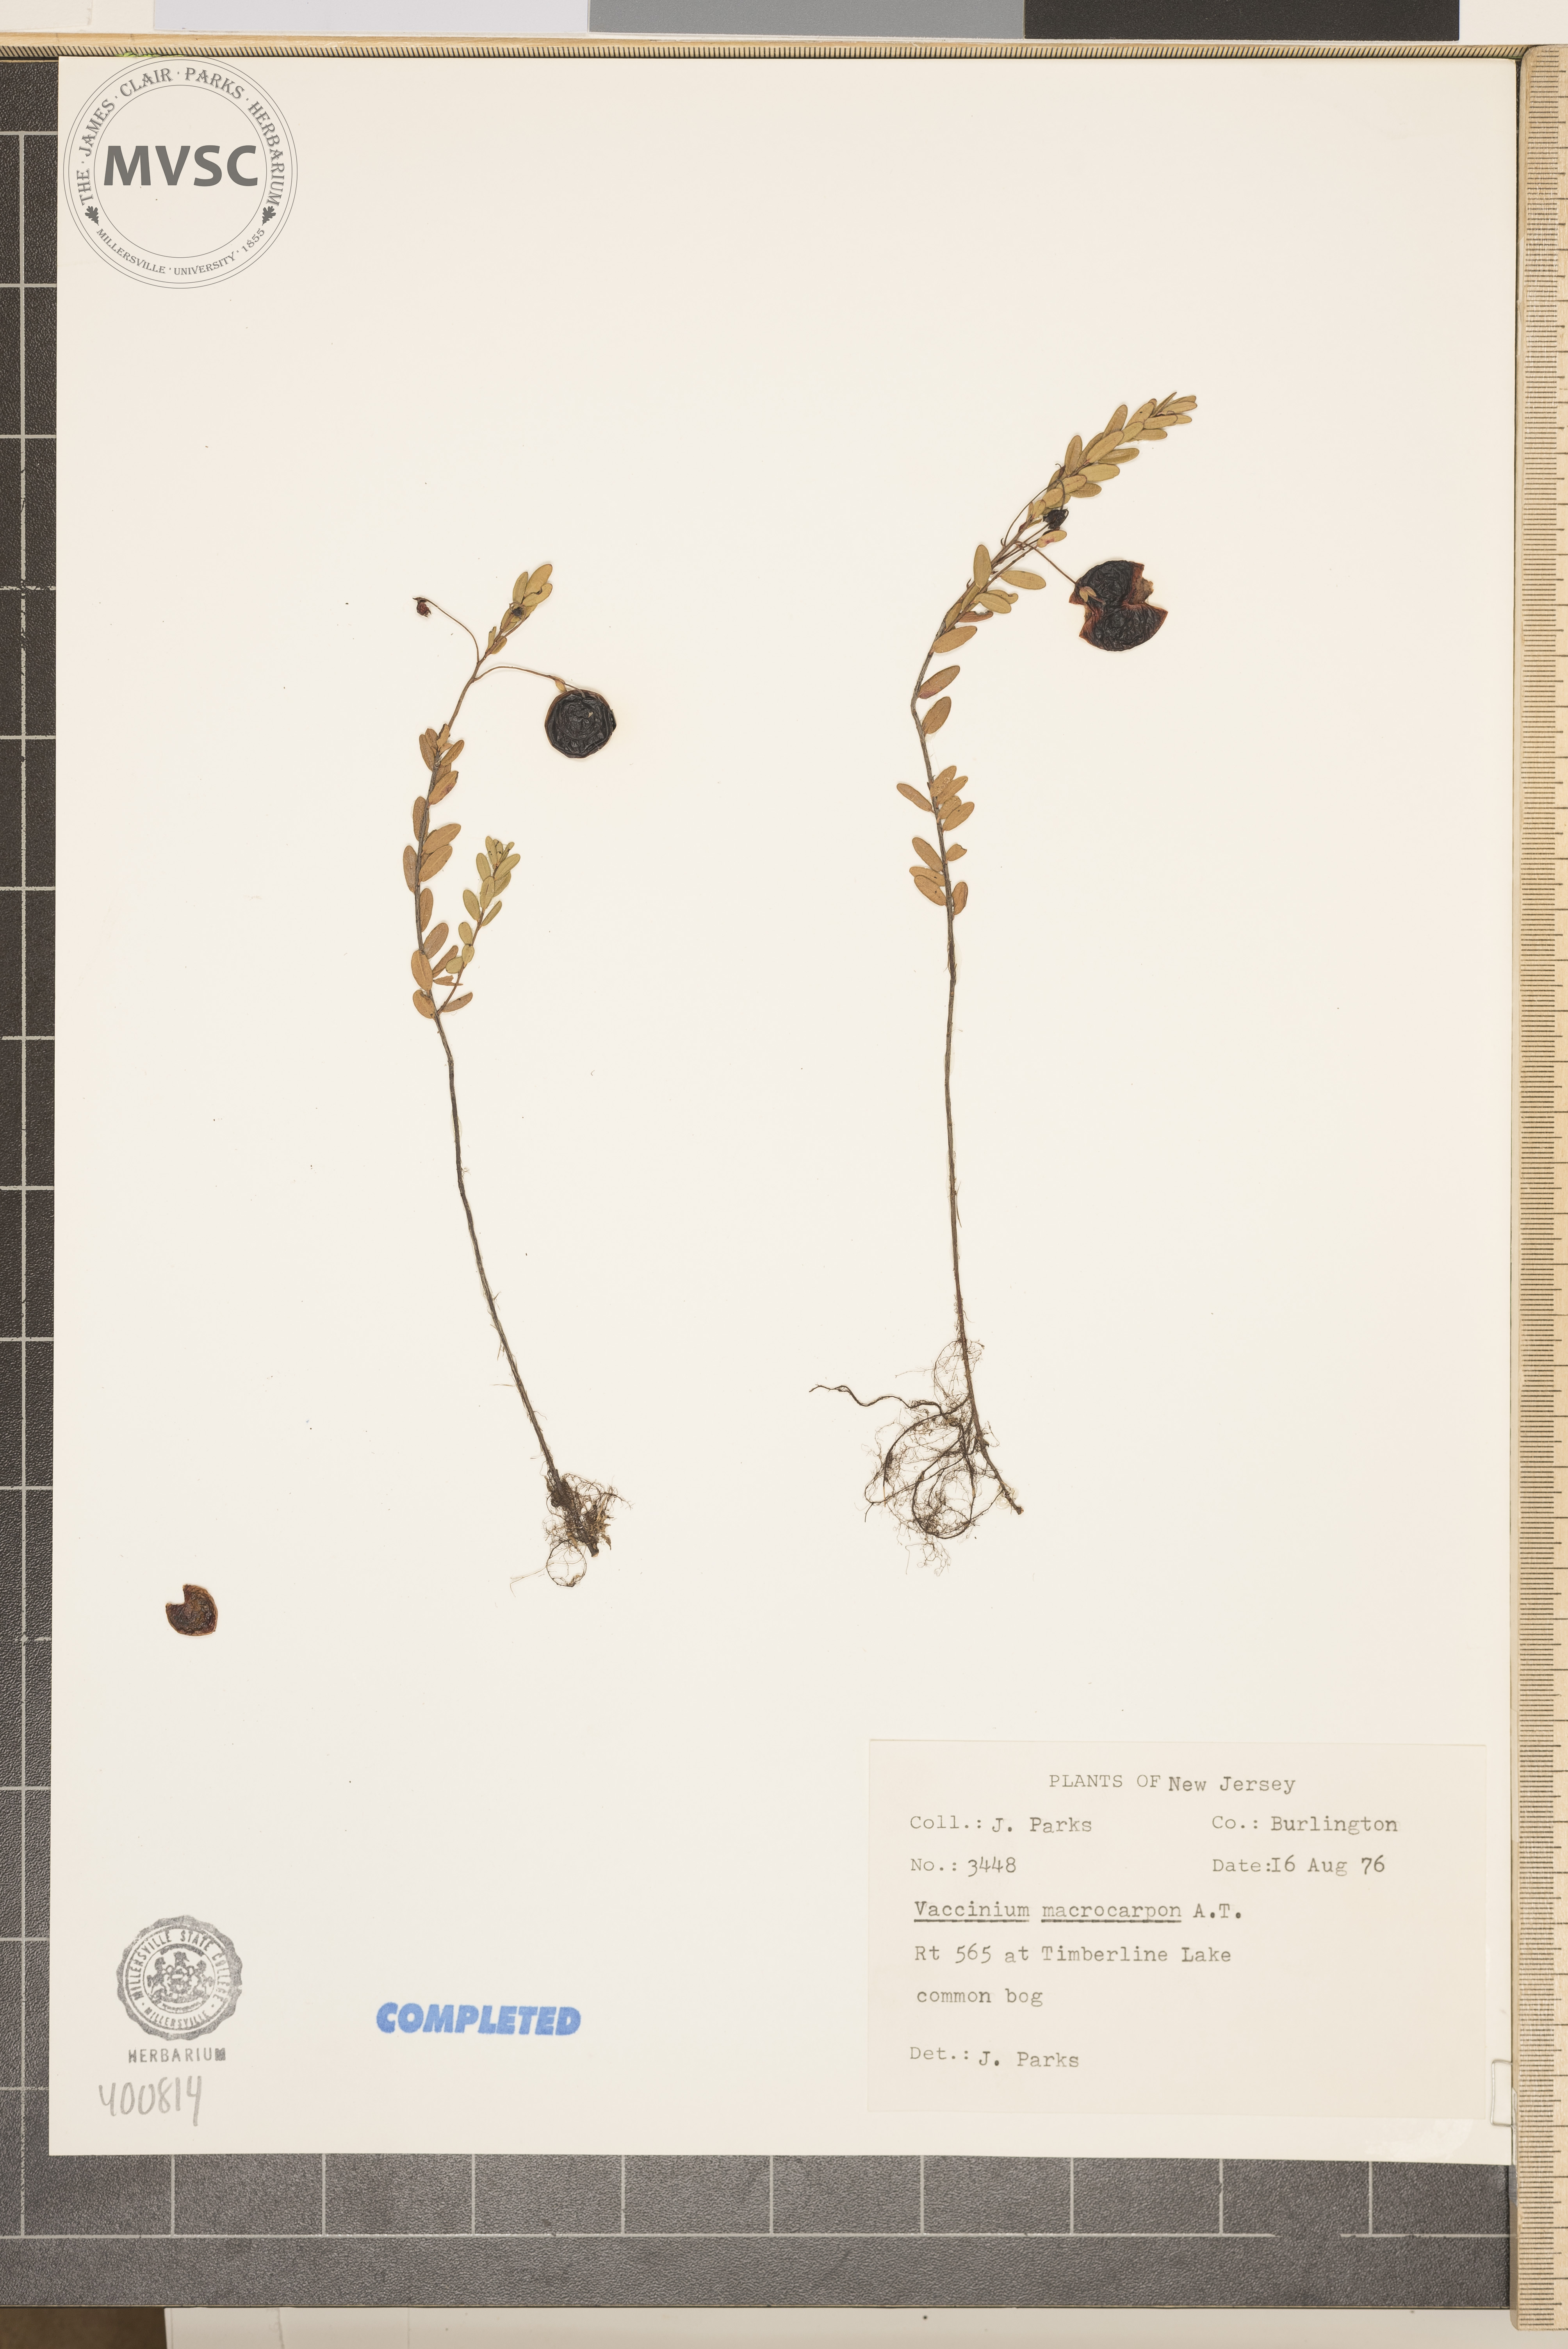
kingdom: Plantae
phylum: Tracheophyta
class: Magnoliopsida
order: Ericales
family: Ericaceae
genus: Vaccinium
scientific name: Vaccinium macrocarpon
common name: blueberry
